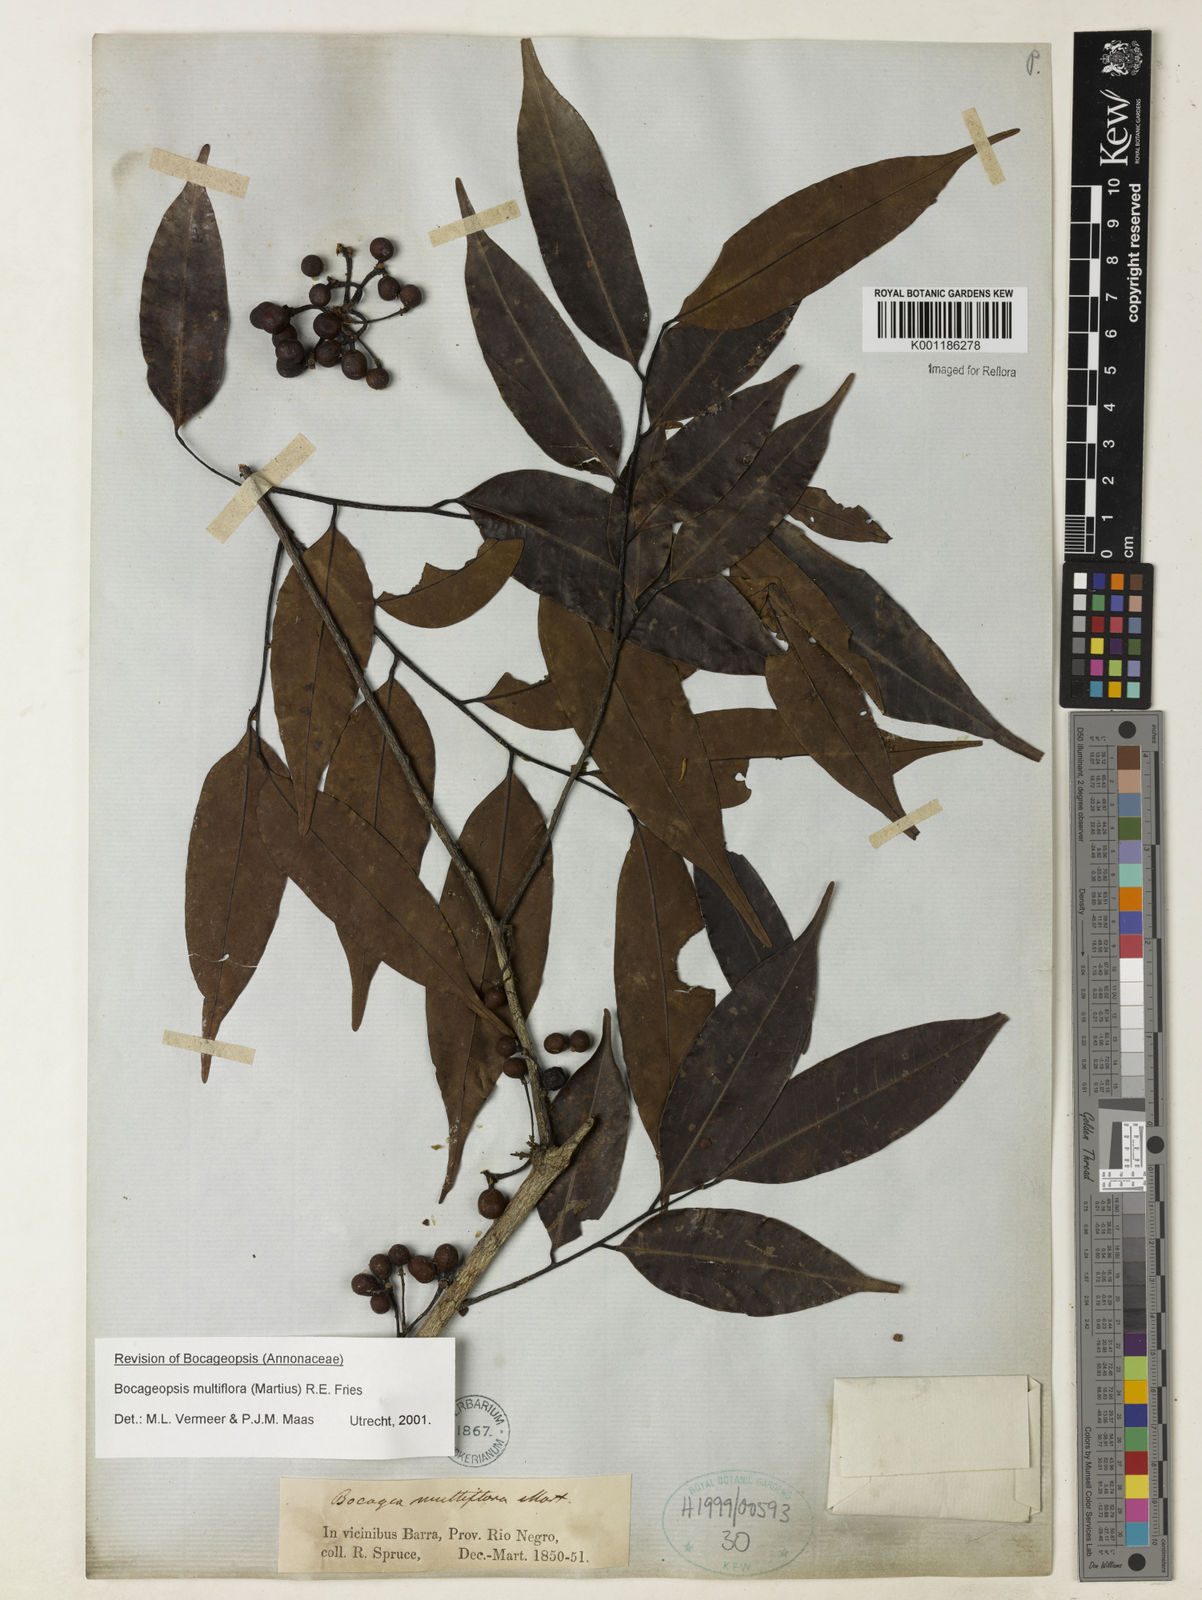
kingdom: Plantae
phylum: Tracheophyta
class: Magnoliopsida
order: Magnoliales
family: Annonaceae
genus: Bocageopsis
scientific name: Bocageopsis multiflora
